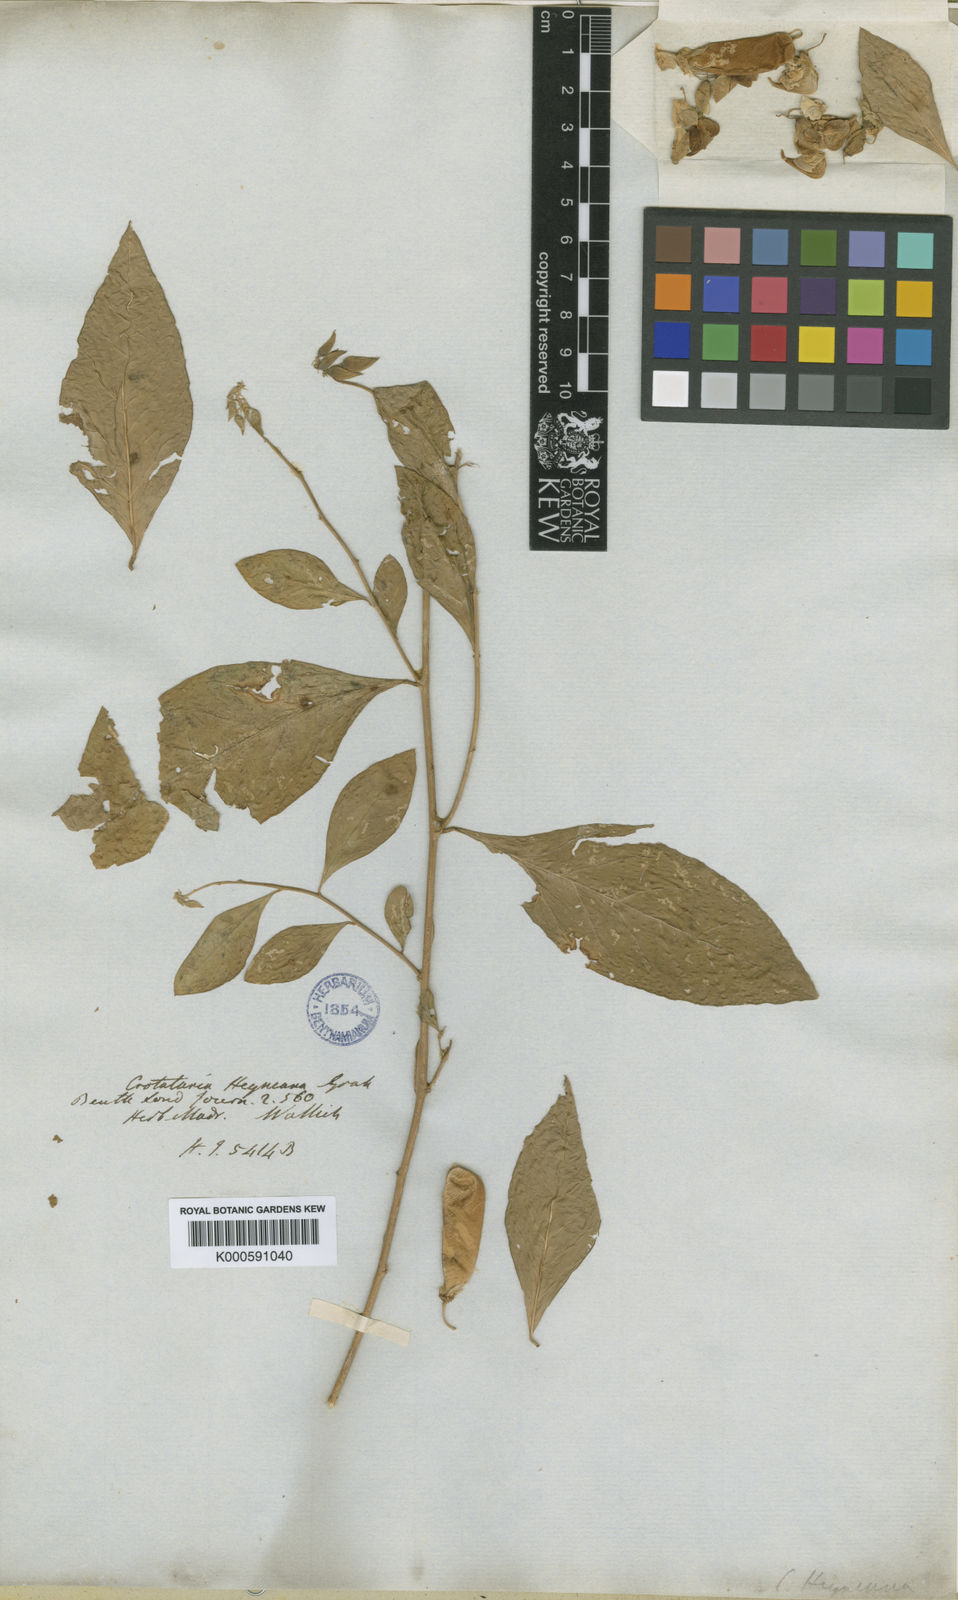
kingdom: Plantae
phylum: Tracheophyta
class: Magnoliopsida
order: Fabales
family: Fabaceae
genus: Crotalaria
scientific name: Crotalaria
